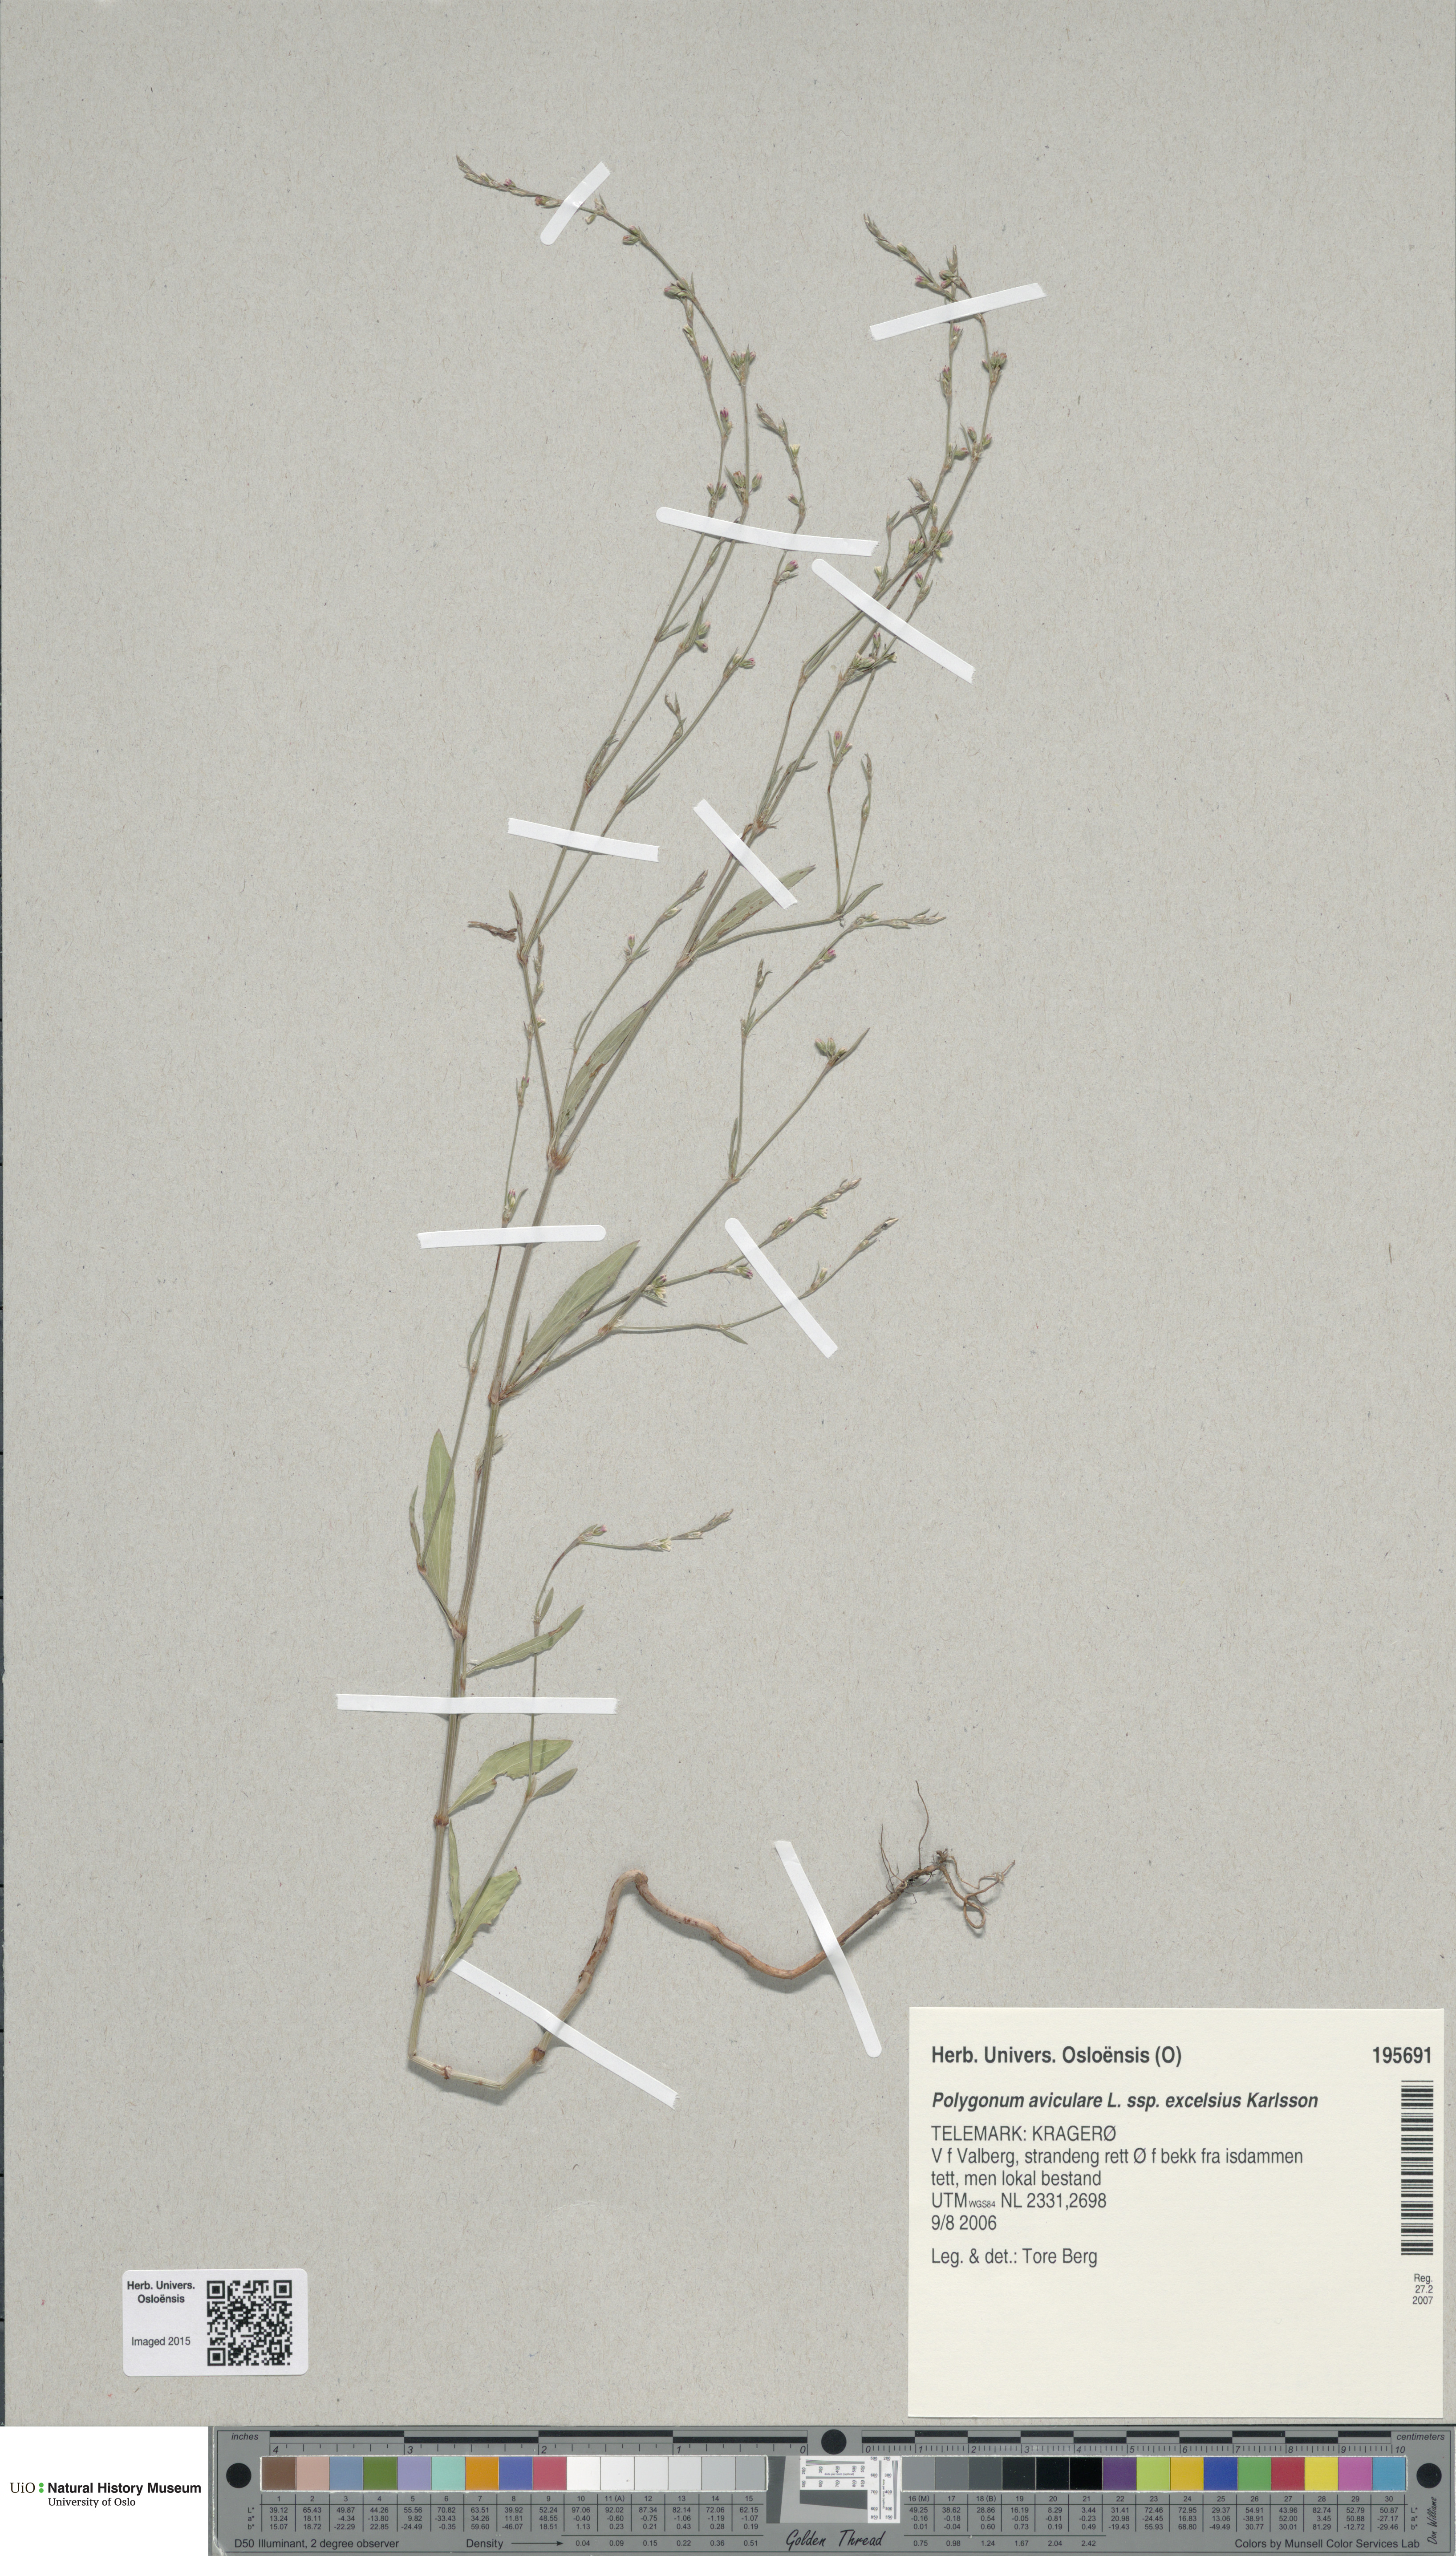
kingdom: Plantae
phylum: Tracheophyta
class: Magnoliopsida
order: Caryophyllales
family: Polygonaceae
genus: Polygonum
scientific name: Polygonum excelsius
